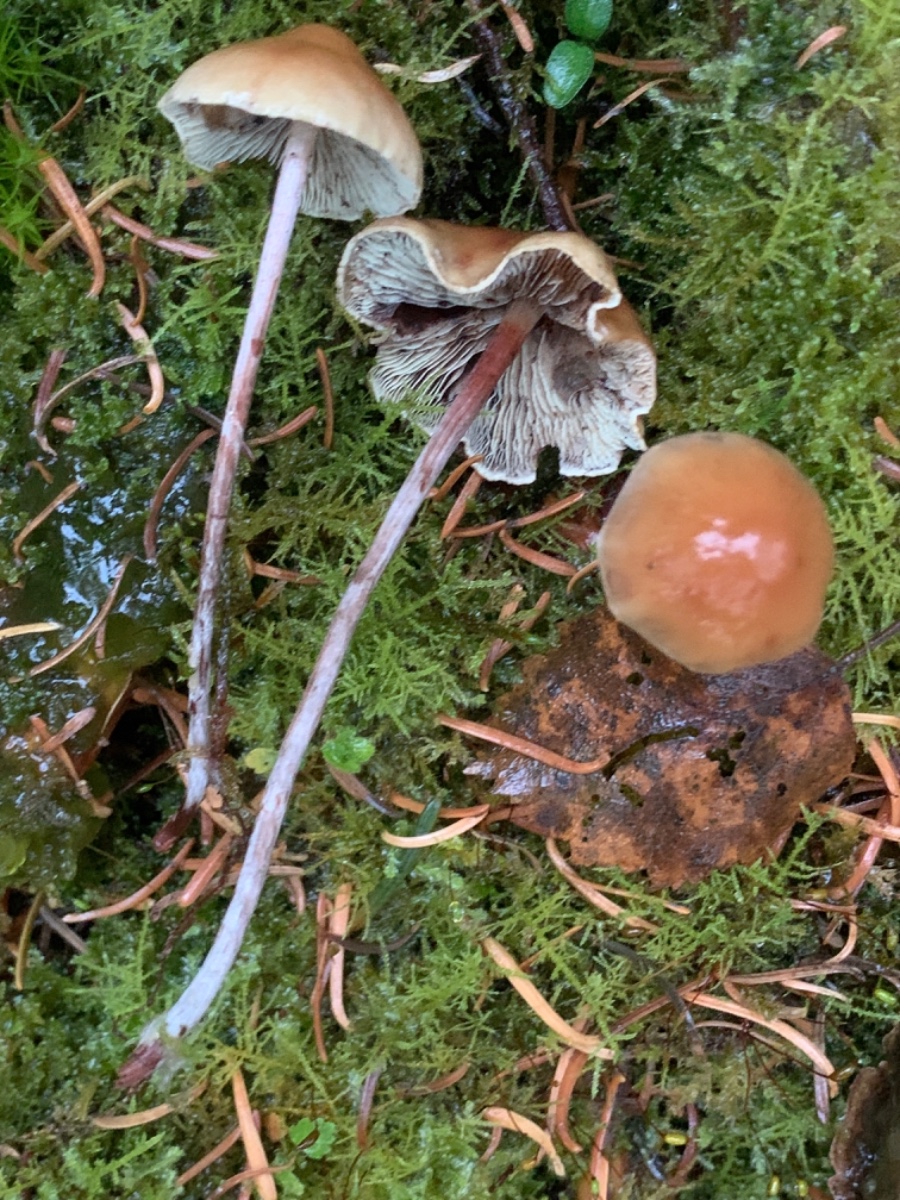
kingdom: Fungi
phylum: Basidiomycota
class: Agaricomycetes
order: Agaricales
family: Strophariaceae
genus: Hypholoma
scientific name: Hypholoma marginatum
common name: enlig svovlhat
